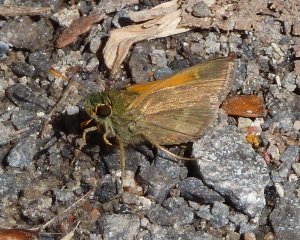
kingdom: Animalia
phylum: Arthropoda
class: Insecta
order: Lepidoptera
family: Hesperiidae
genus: Polites
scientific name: Polites themistocles
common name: Tawny-edged Skipper
